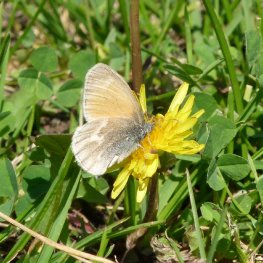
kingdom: Animalia
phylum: Arthropoda
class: Insecta
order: Lepidoptera
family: Nymphalidae
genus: Coenonympha
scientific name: Coenonympha tullia
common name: Large Heath
